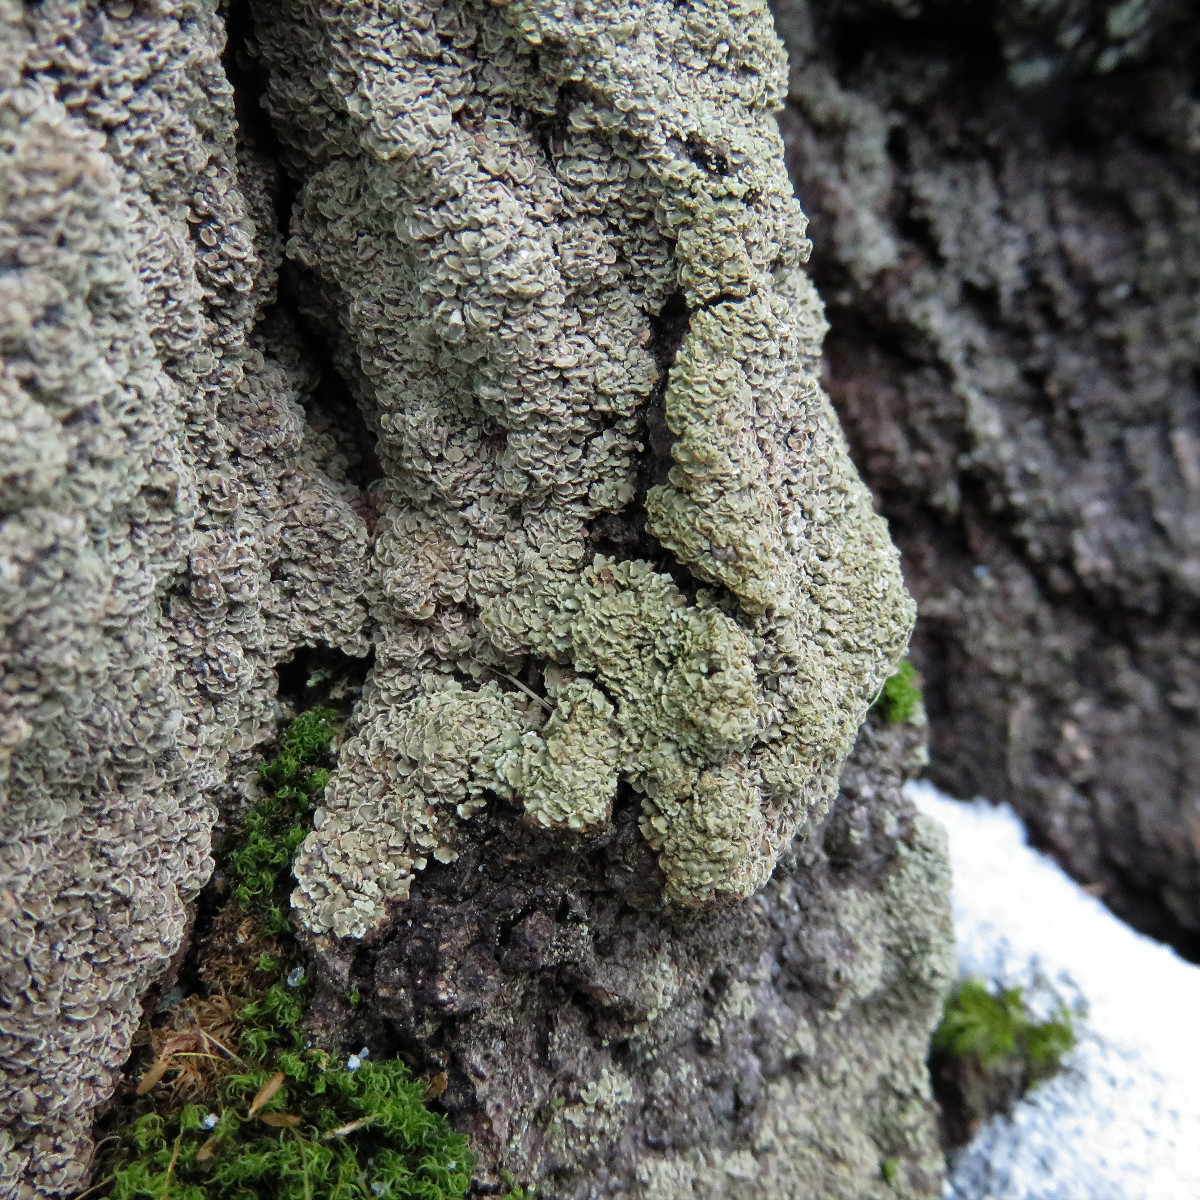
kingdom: Fungi
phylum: Ascomycota
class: Lecanoromycetes
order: Umbilicariales
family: Ophioparmaceae
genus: Hypocenomyce
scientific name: Hypocenomyce scalaris
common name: småskællet muslinglav
